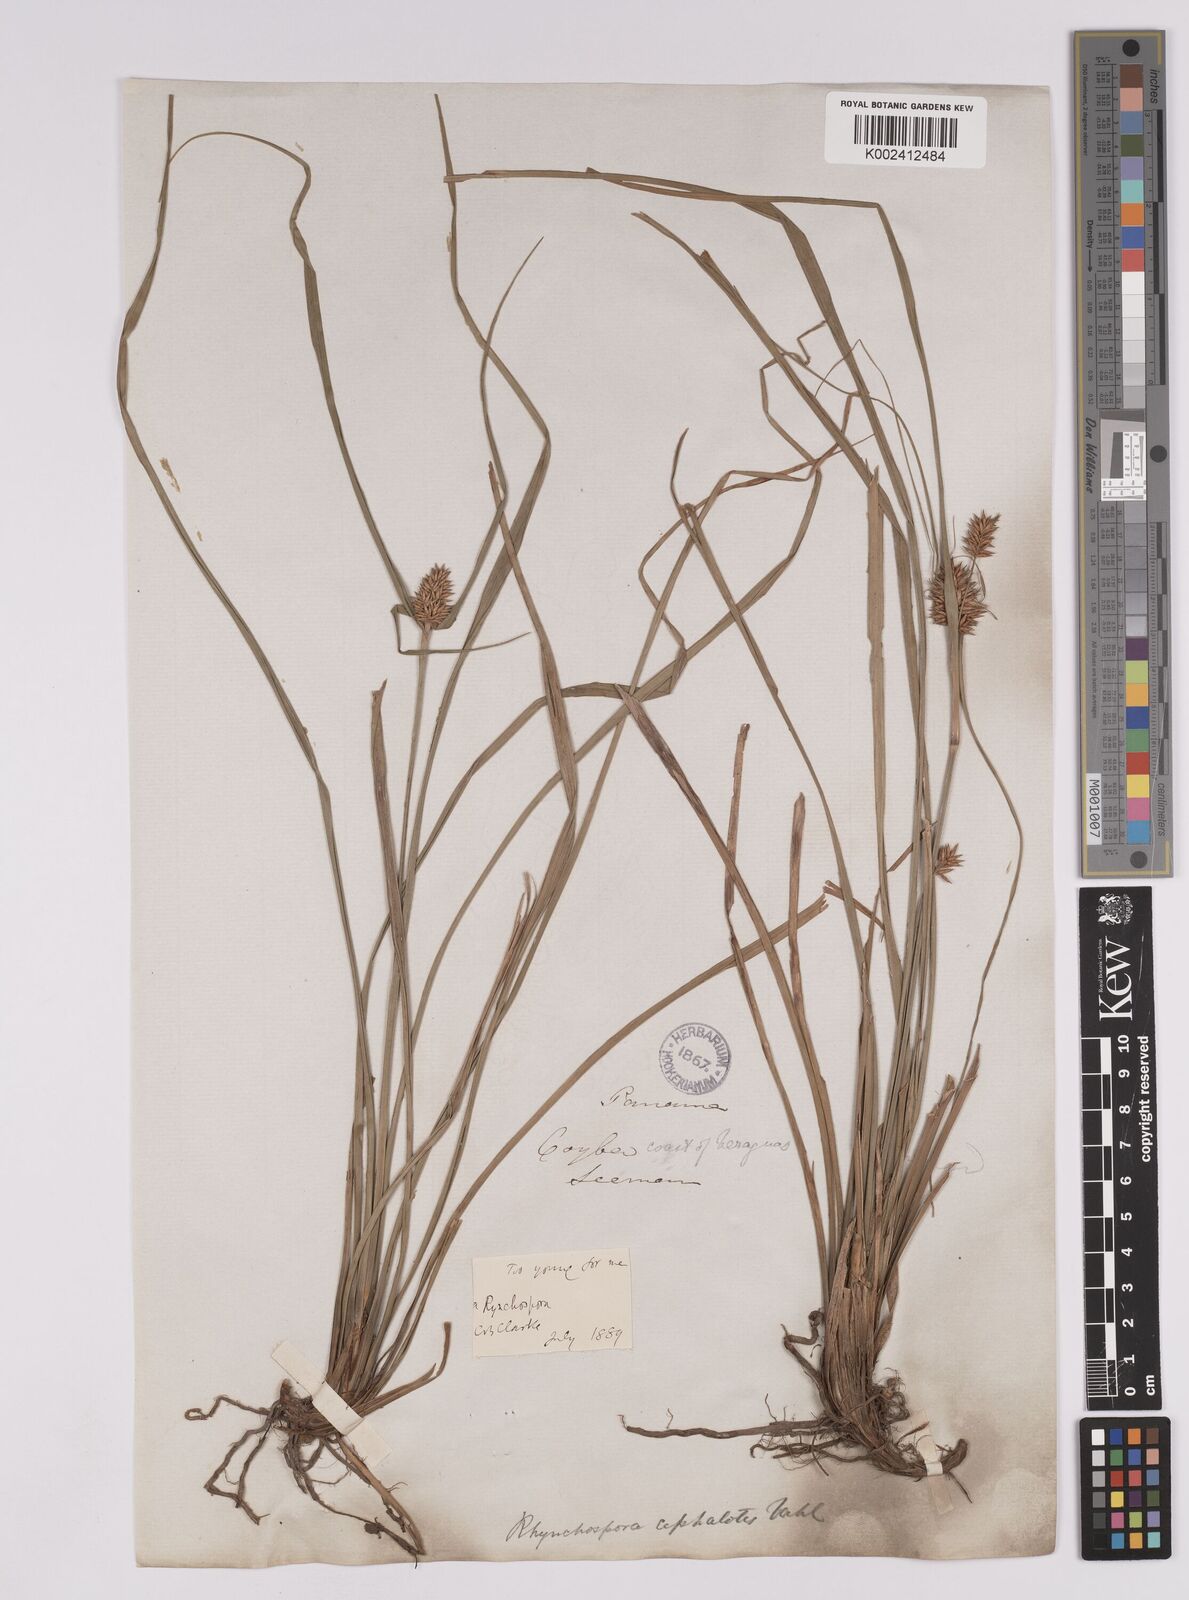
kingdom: Plantae
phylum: Tracheophyta
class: Liliopsida
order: Poales
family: Cyperaceae
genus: Rhynchospora
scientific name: Rhynchospora cephalotes
